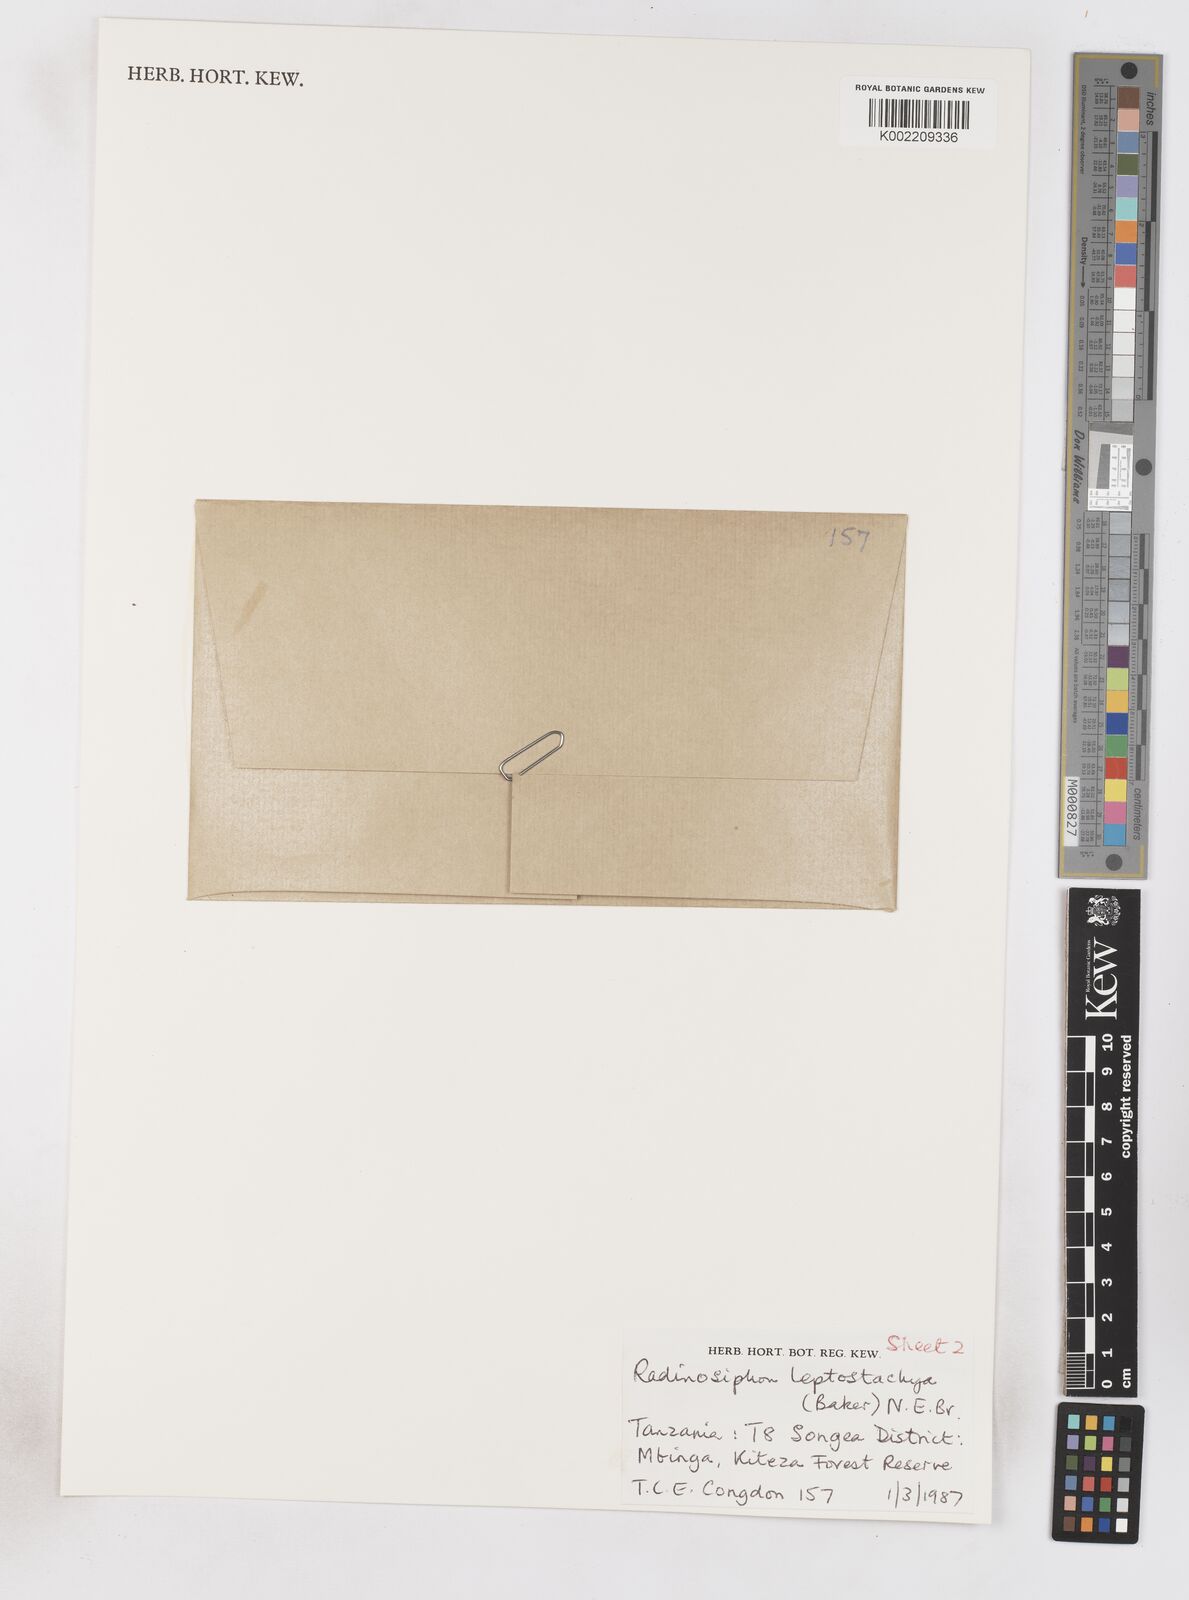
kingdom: Plantae
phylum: Tracheophyta
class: Liliopsida
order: Asparagales
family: Iridaceae
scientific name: Iridaceae
